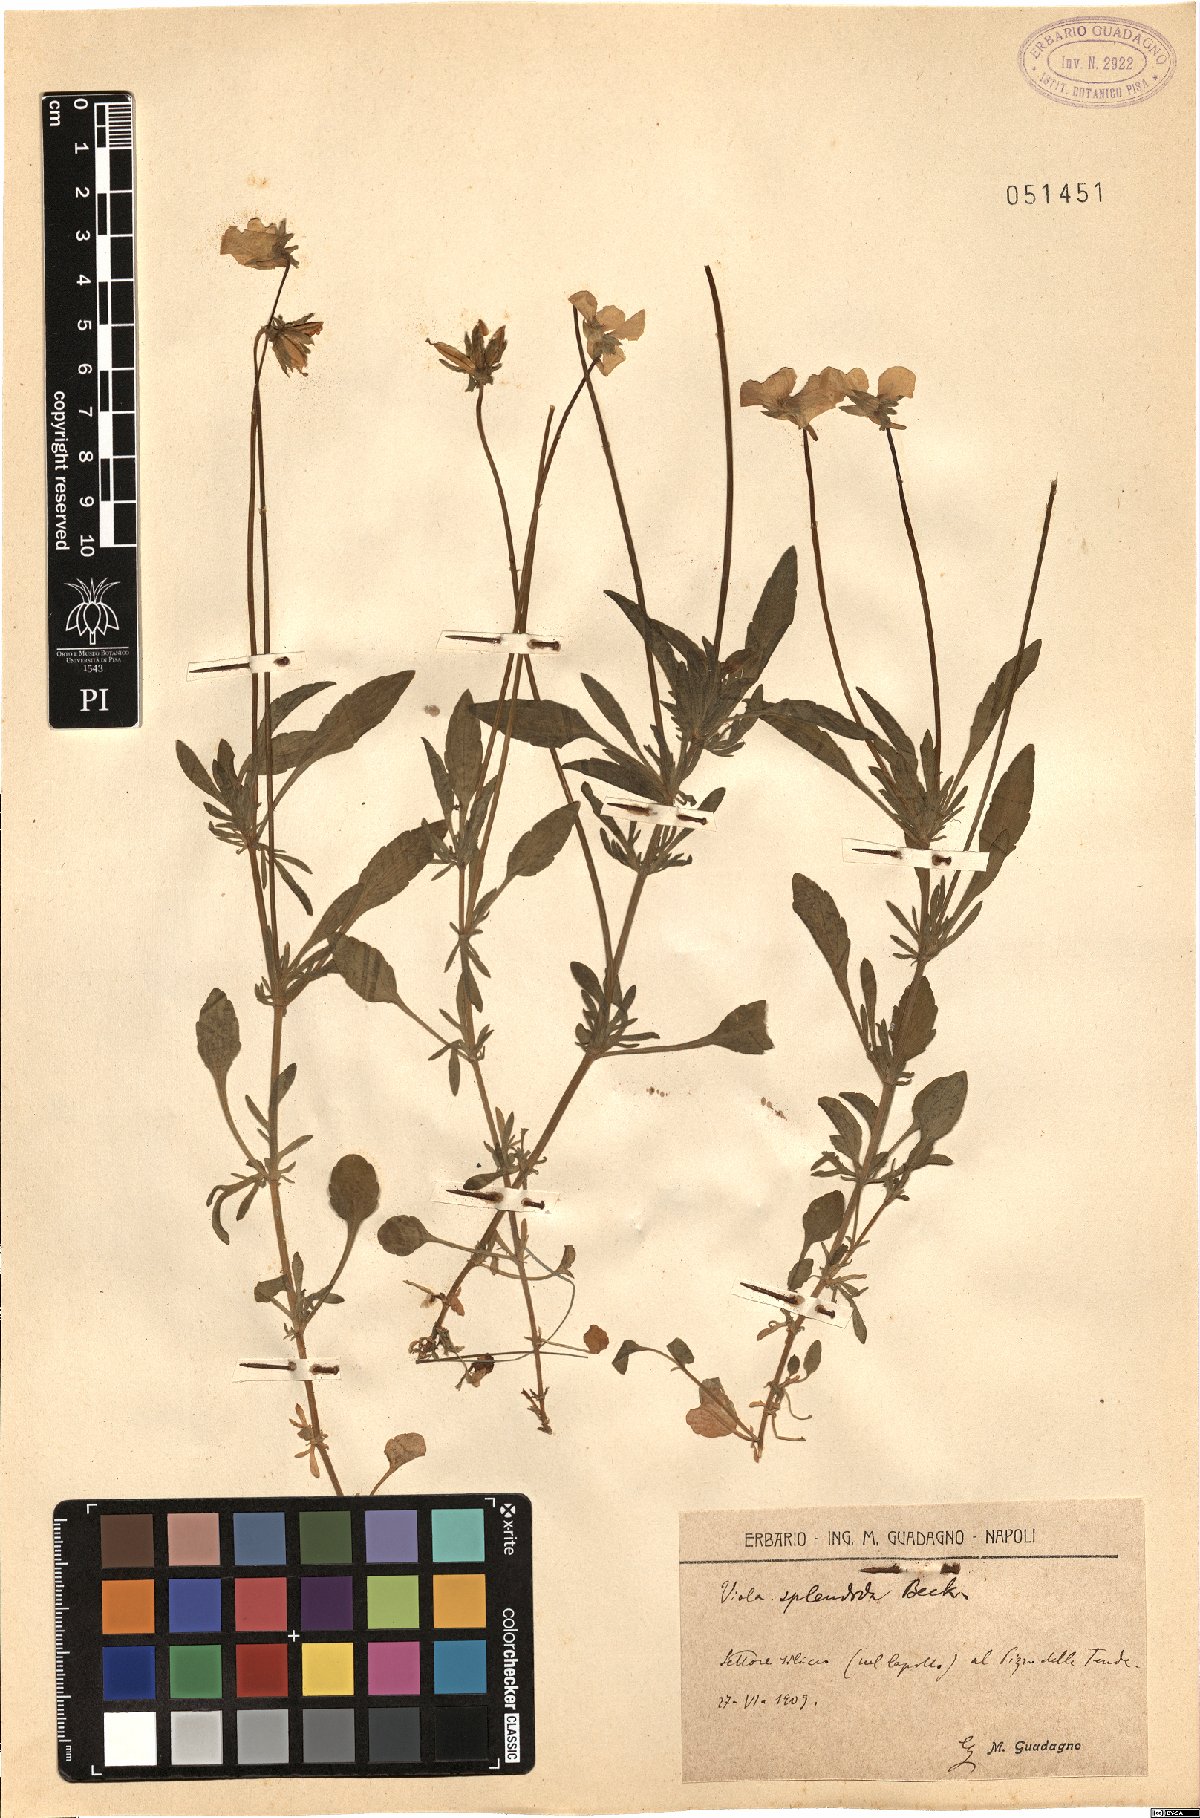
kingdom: Plantae
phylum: Tracheophyta
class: Magnoliopsida
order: Malpighiales
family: Violaceae
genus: Viola
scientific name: Viola aethnensis
